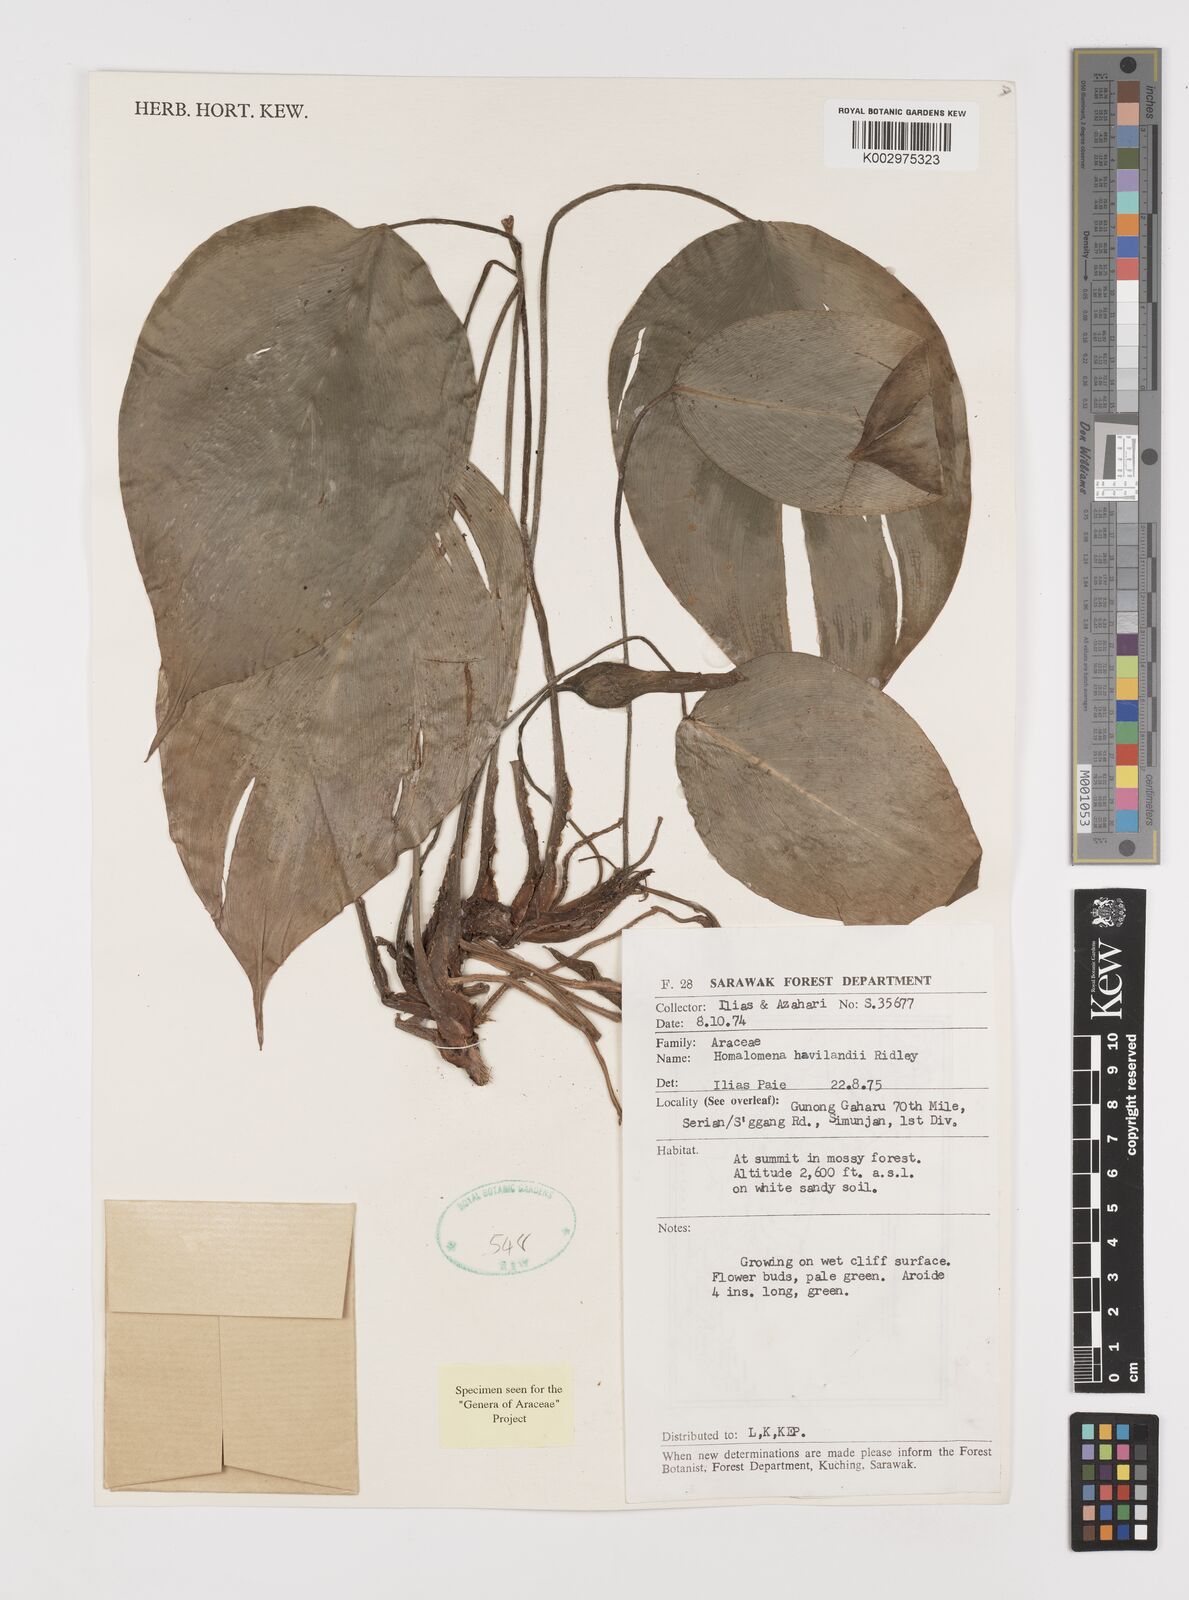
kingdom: Plantae
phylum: Tracheophyta
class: Liliopsida
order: Alismatales
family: Araceae
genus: Homalomena
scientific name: Homalomena havilandii
